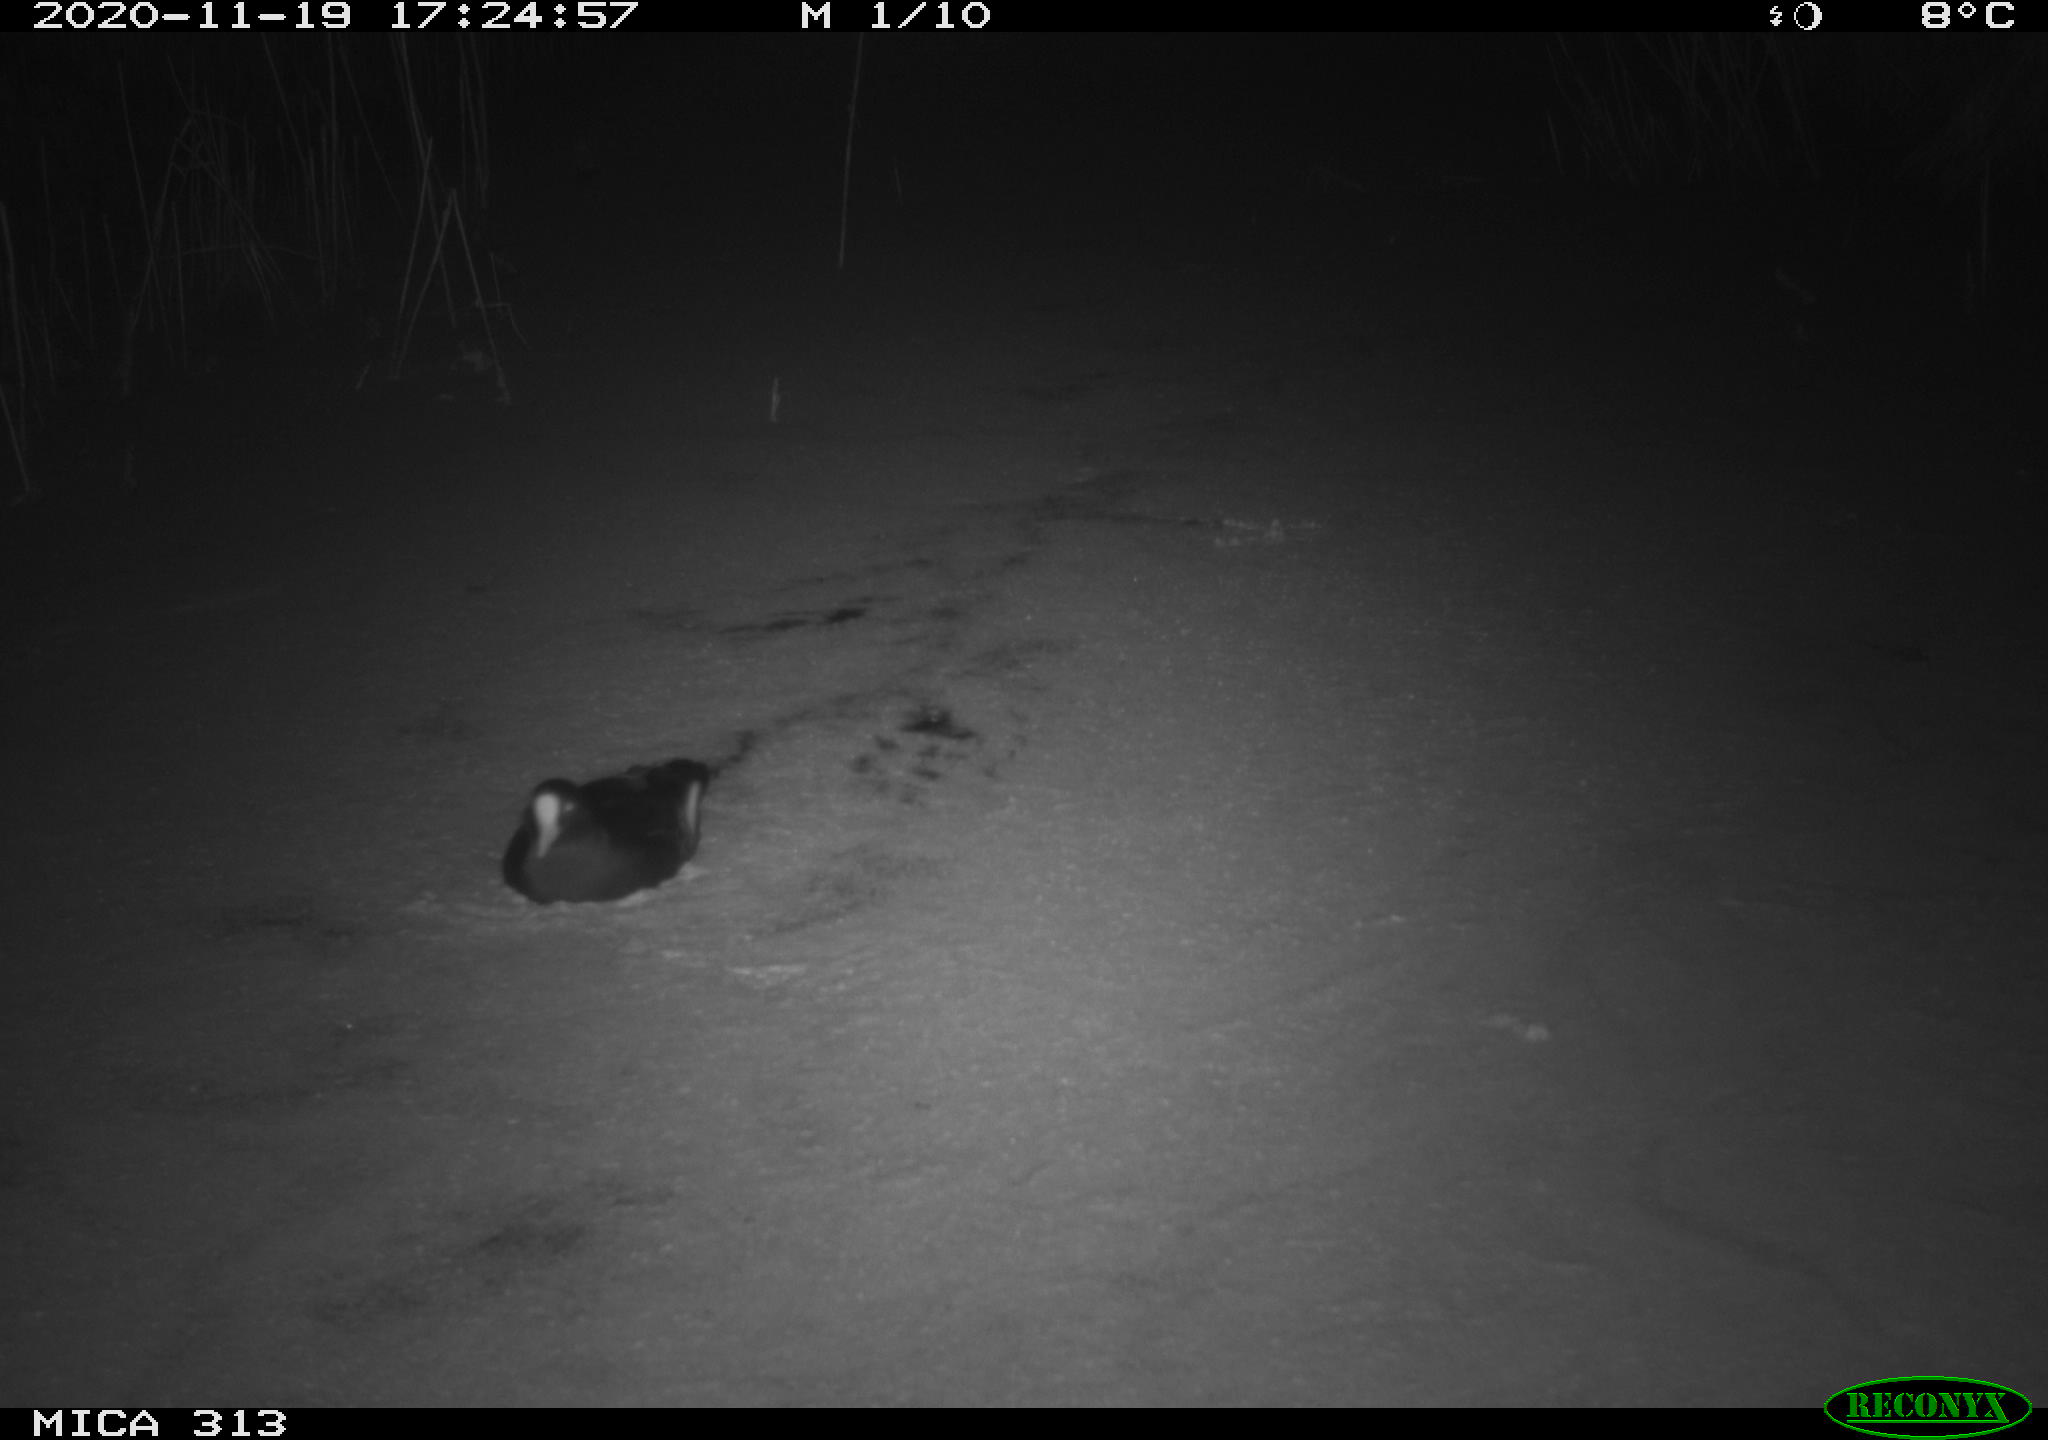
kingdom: Animalia
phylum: Chordata
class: Aves
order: Gruiformes
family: Rallidae
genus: Fulica
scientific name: Fulica atra
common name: Eurasian coot
